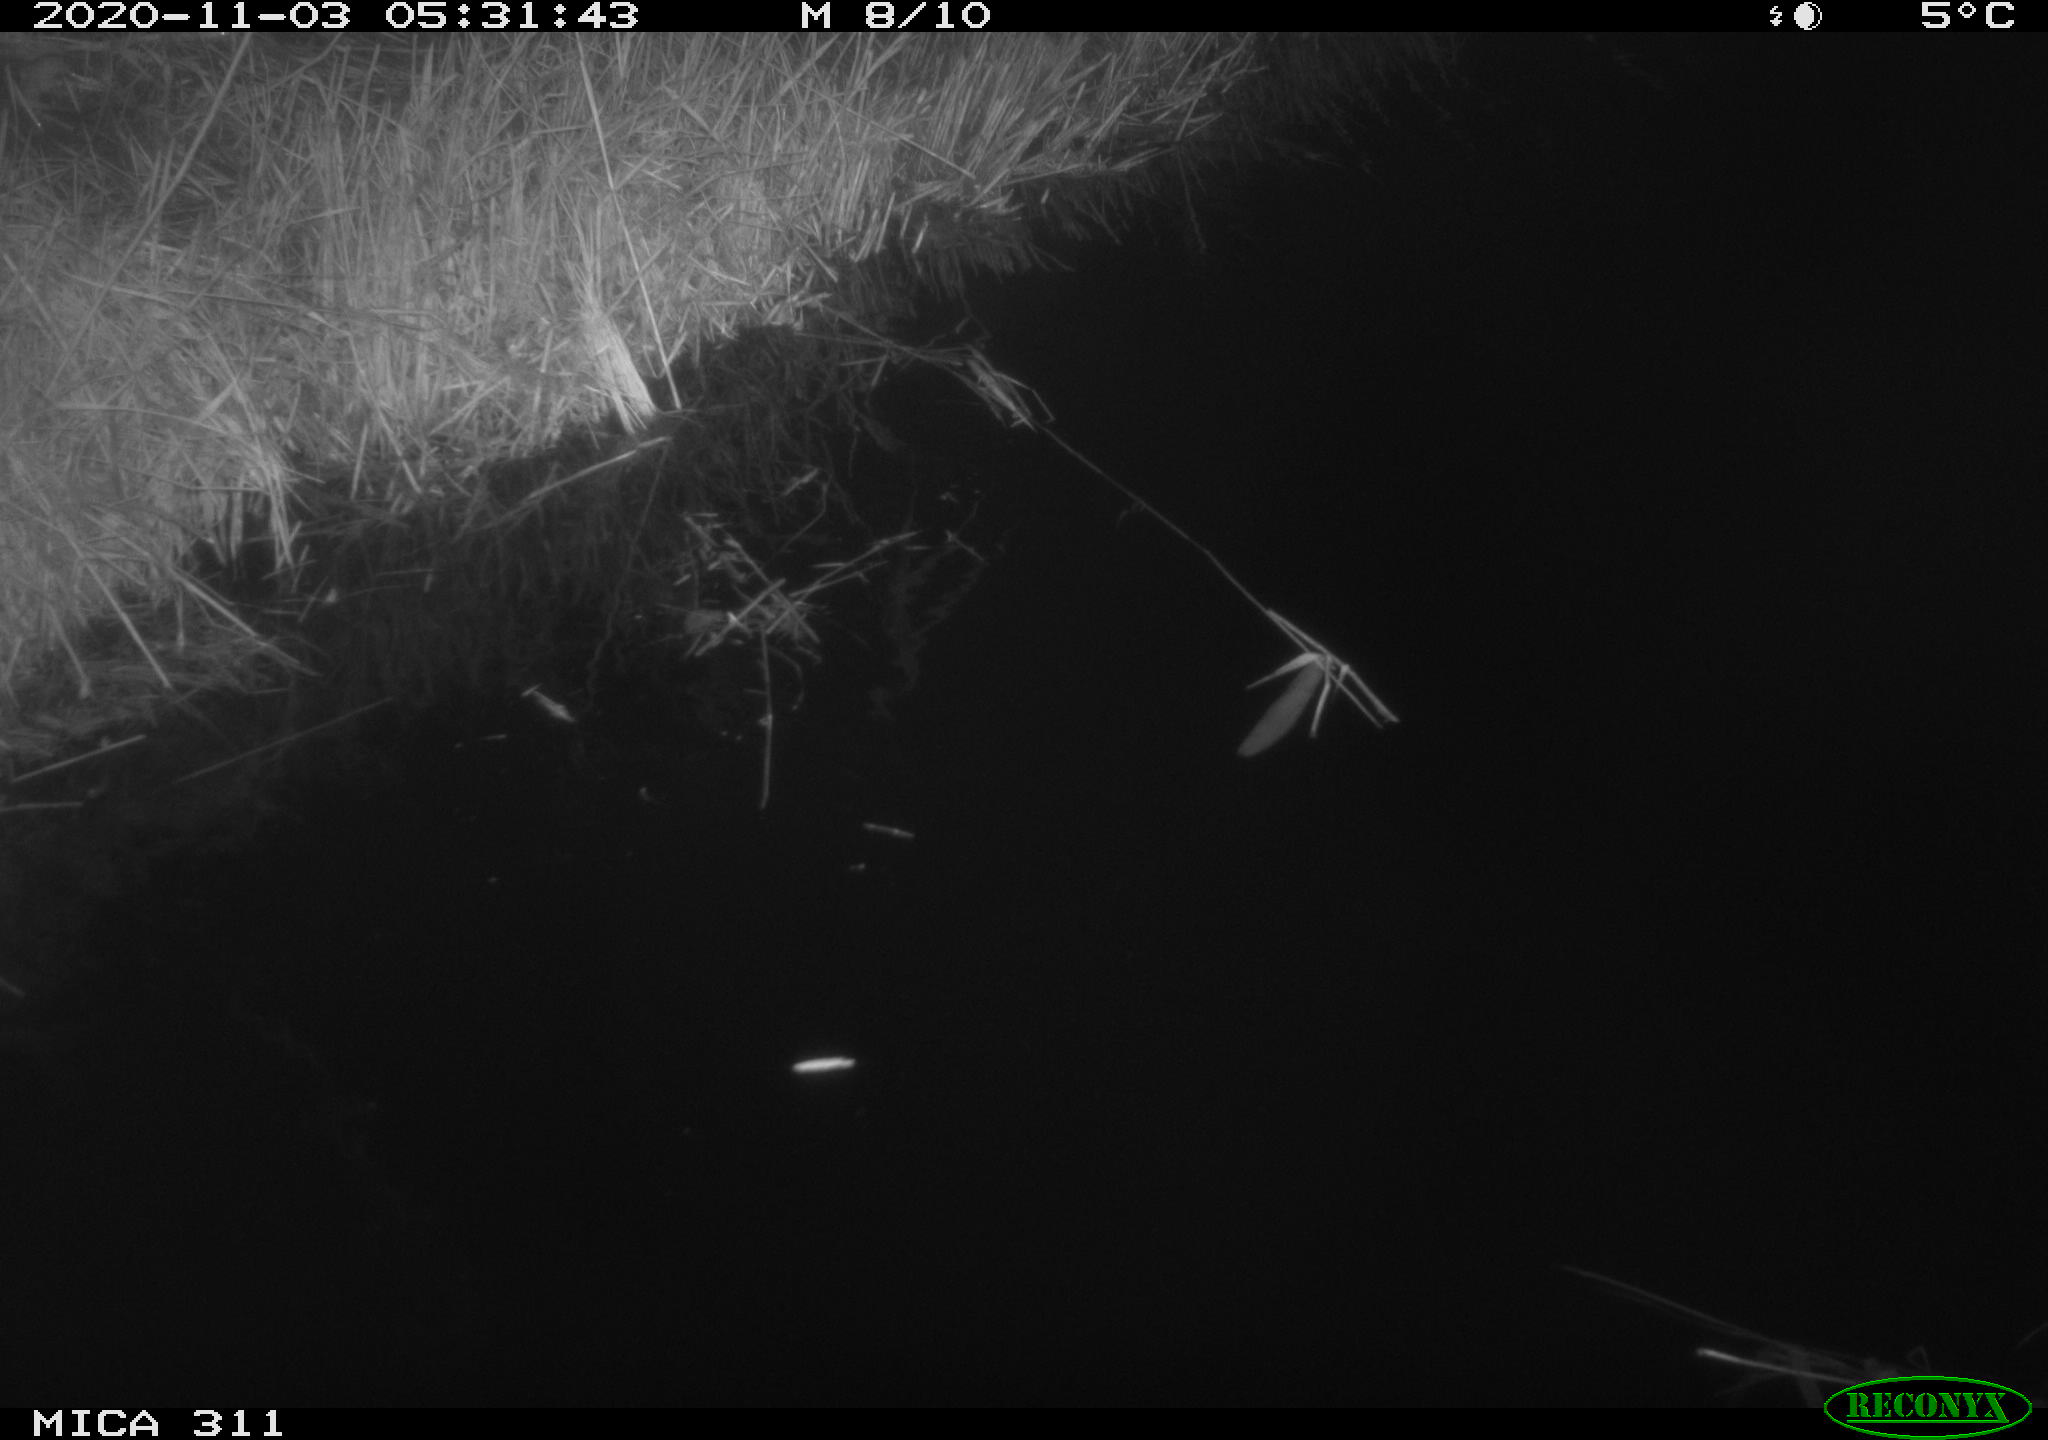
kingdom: Animalia
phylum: Chordata
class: Mammalia
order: Rodentia
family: Muridae
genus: Rattus
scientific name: Rattus norvegicus
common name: Brown rat
